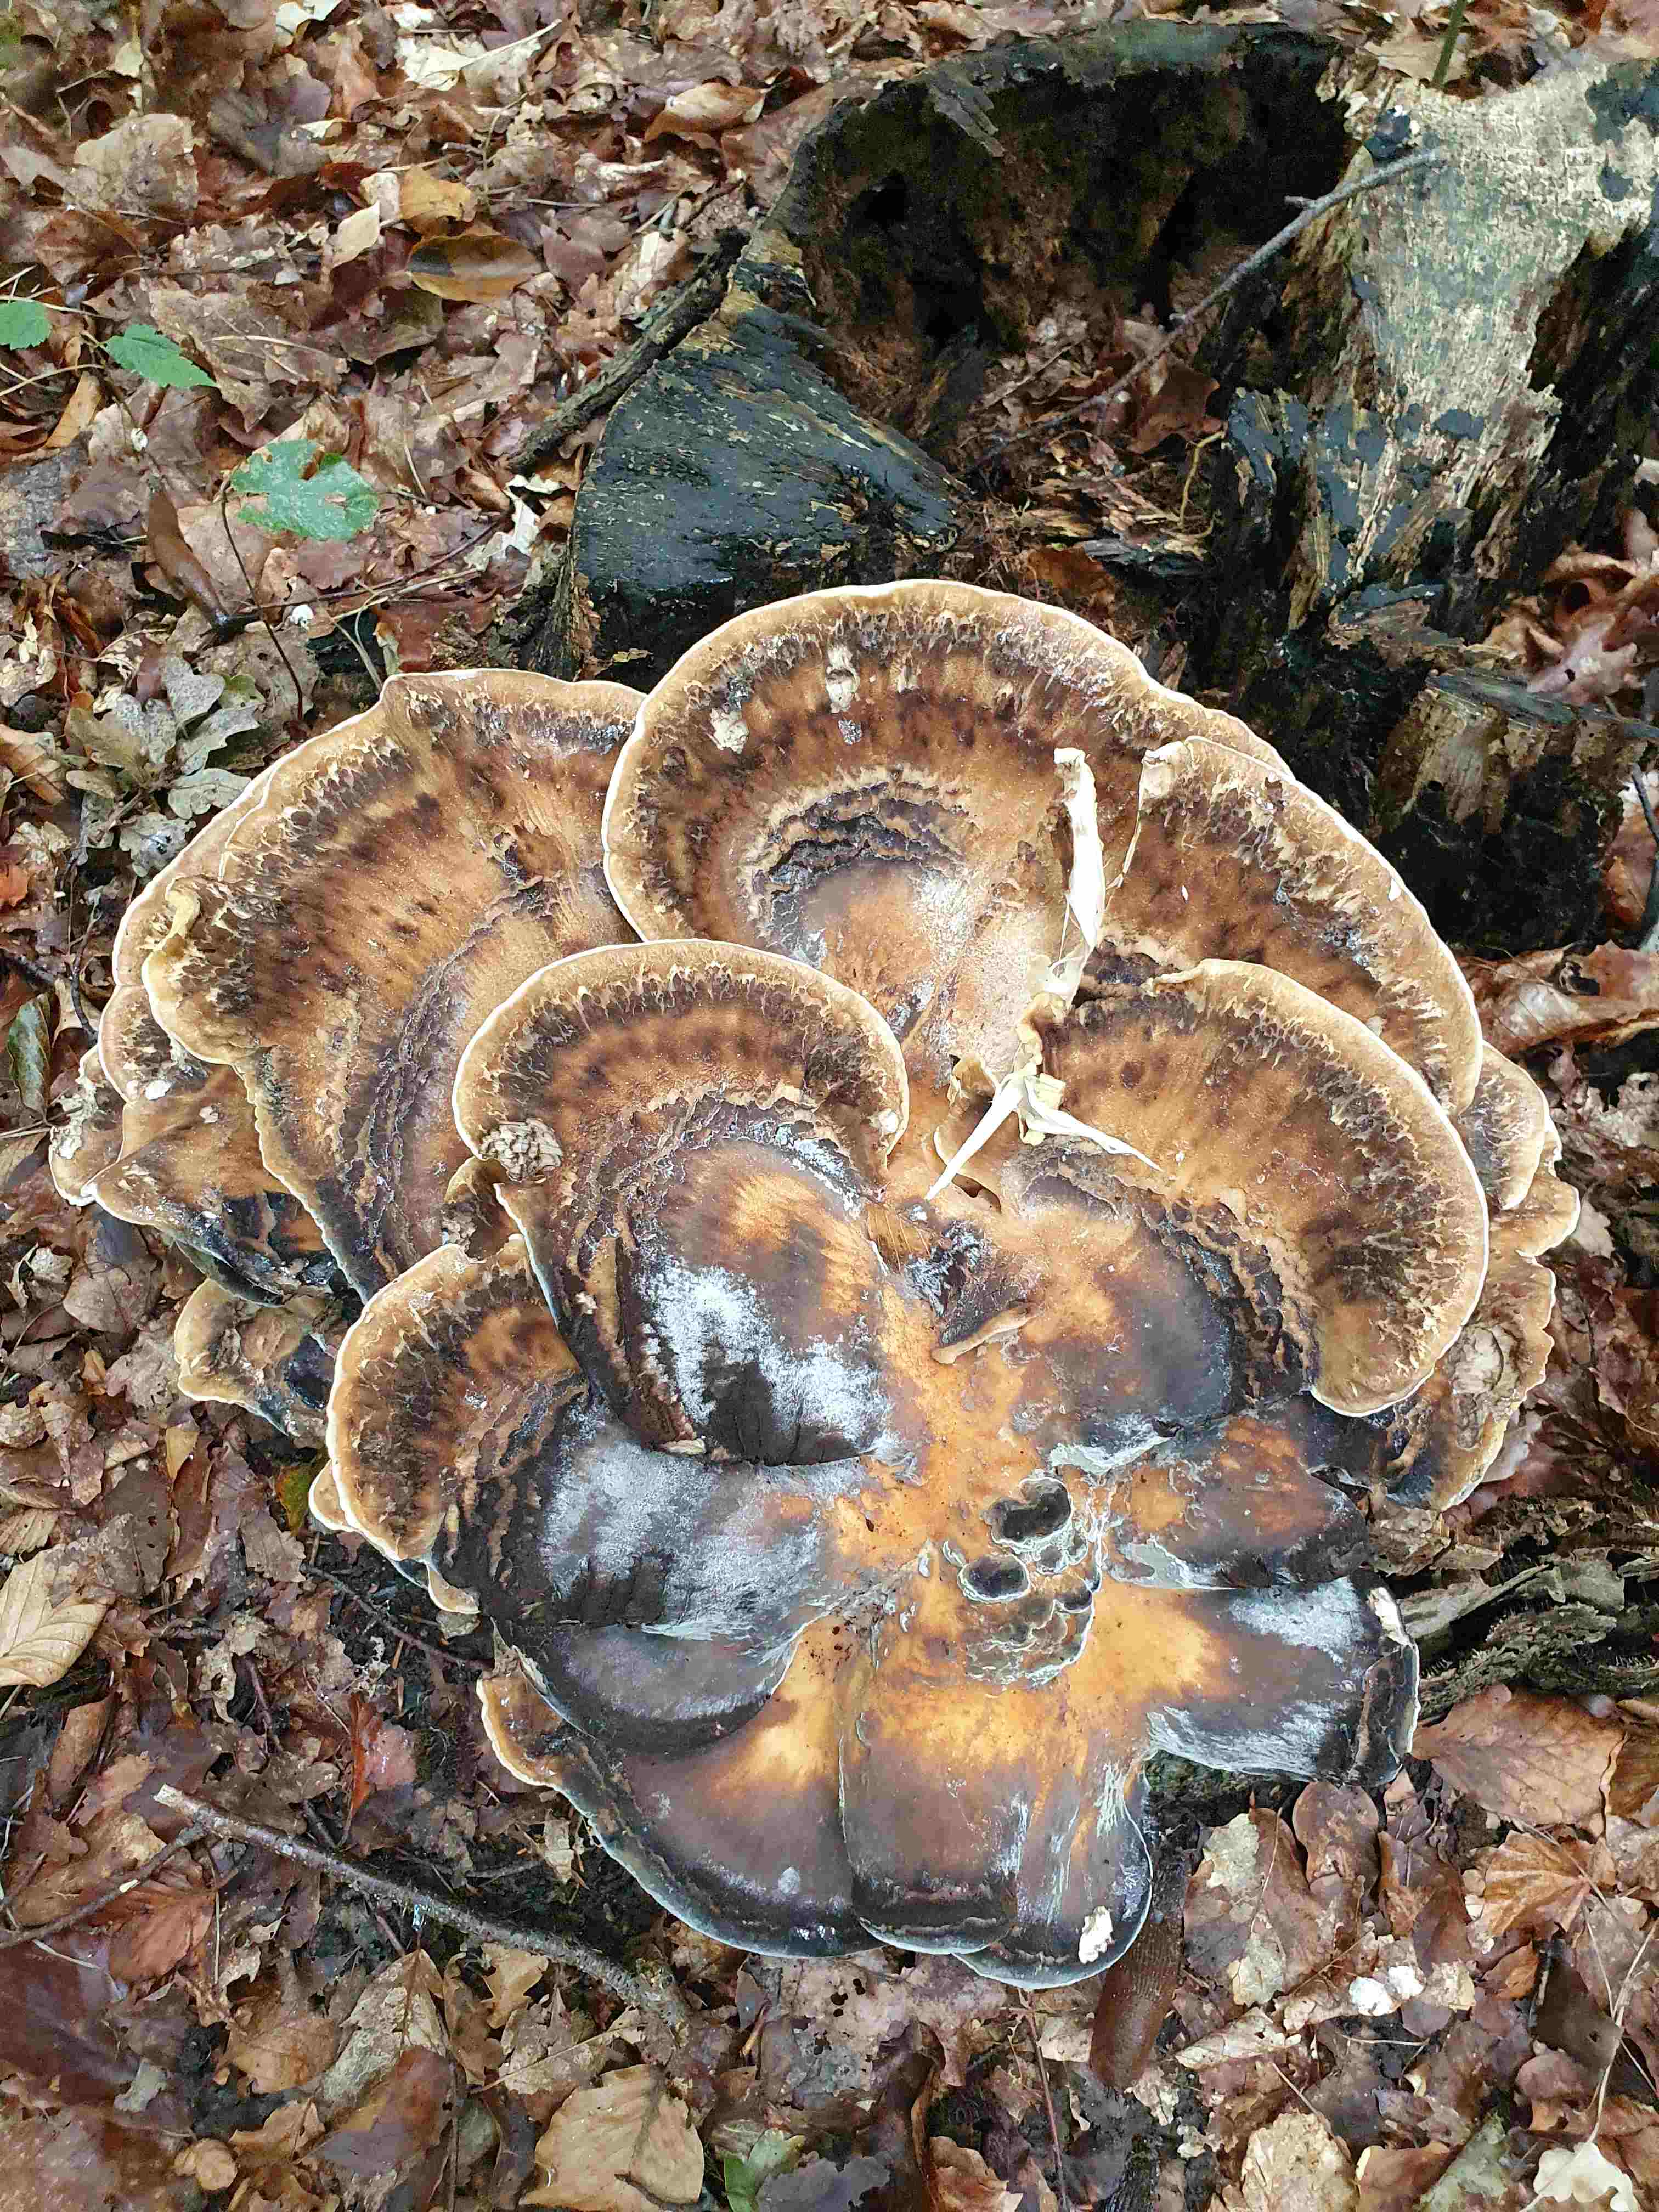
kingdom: Fungi
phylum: Basidiomycota
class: Agaricomycetes
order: Polyporales
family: Meripilaceae
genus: Meripilus
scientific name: Meripilus giganteus
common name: kæmpeporesvamp
